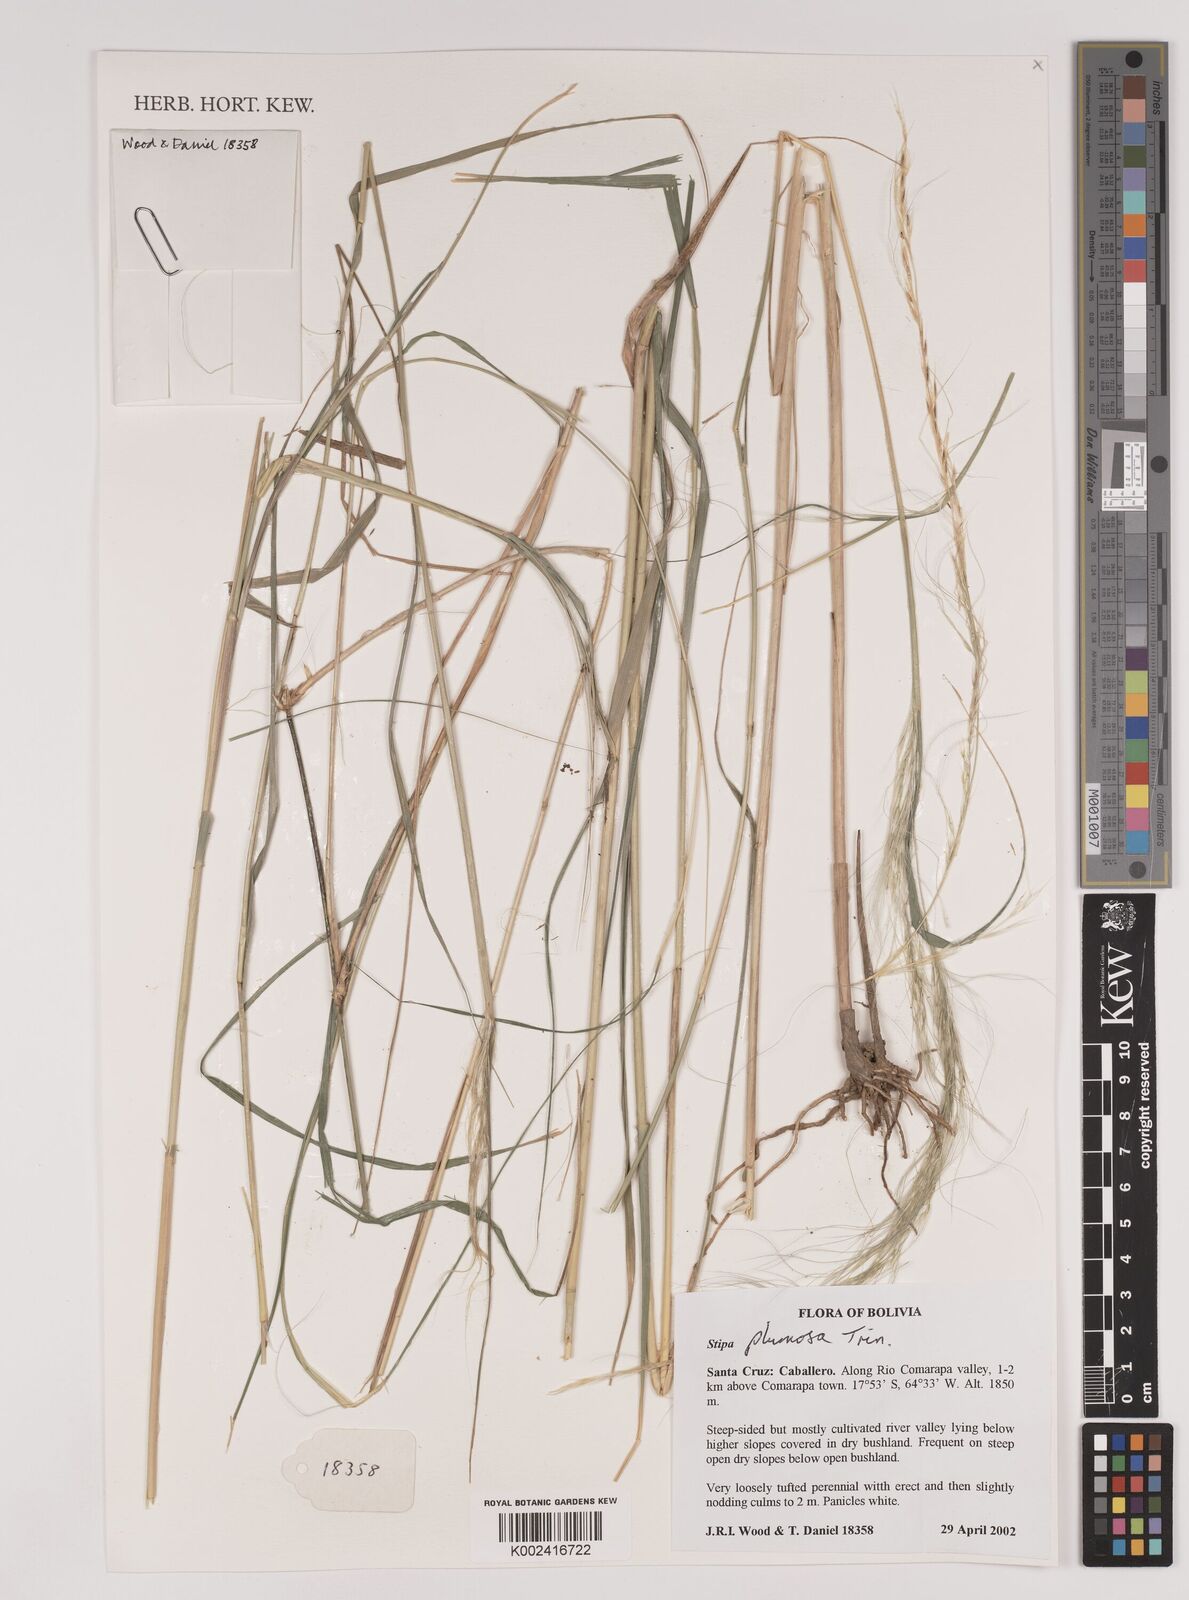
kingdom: Plantae
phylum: Tracheophyta
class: Liliopsida
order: Poales
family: Poaceae
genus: Stipa
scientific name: Stipa plumosa
